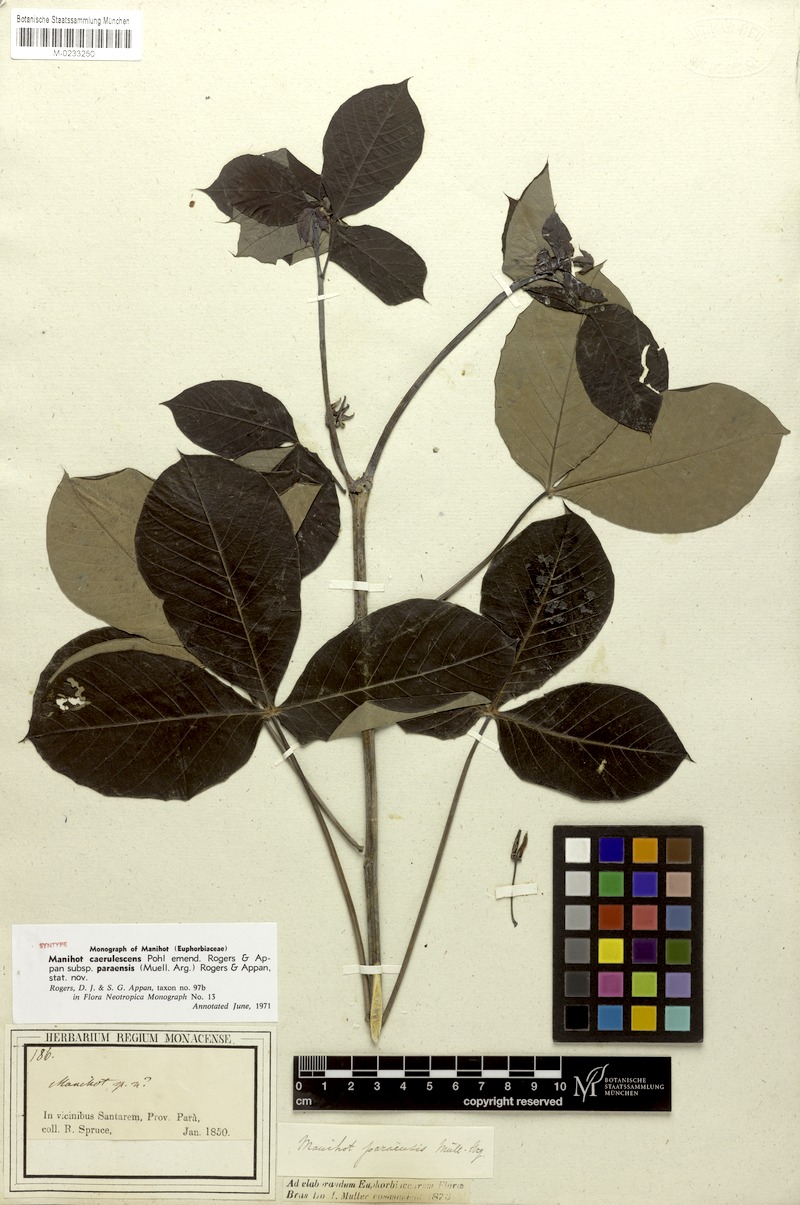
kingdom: Plantae
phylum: Tracheophyta
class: Magnoliopsida
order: Malpighiales
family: Euphorbiaceae
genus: Manihot
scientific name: Manihot caerulescens
